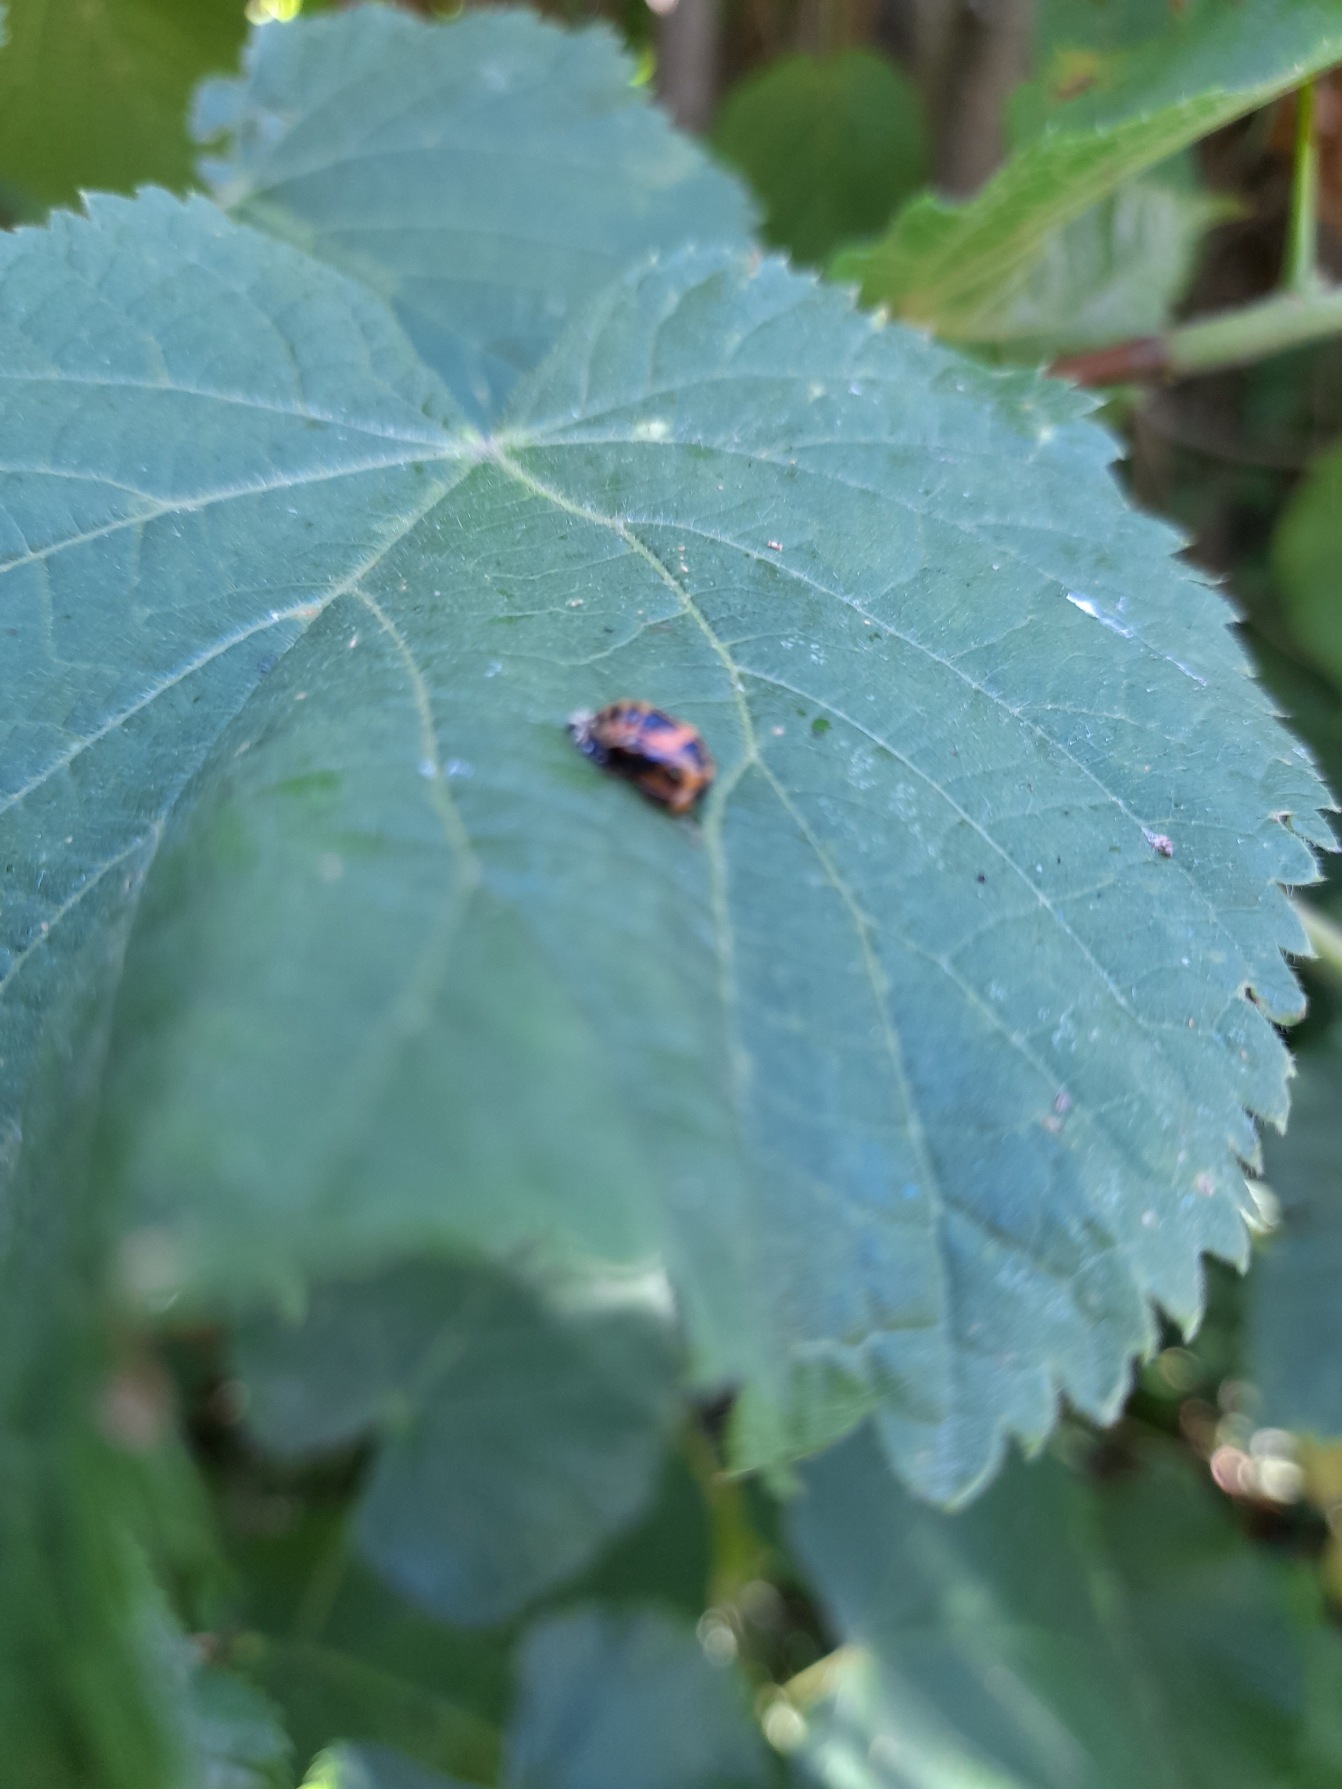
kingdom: Animalia
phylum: Arthropoda
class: Insecta
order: Coleoptera
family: Coccinellidae
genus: Harmonia
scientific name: Harmonia axyridis
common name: Harlekinmariehøne
